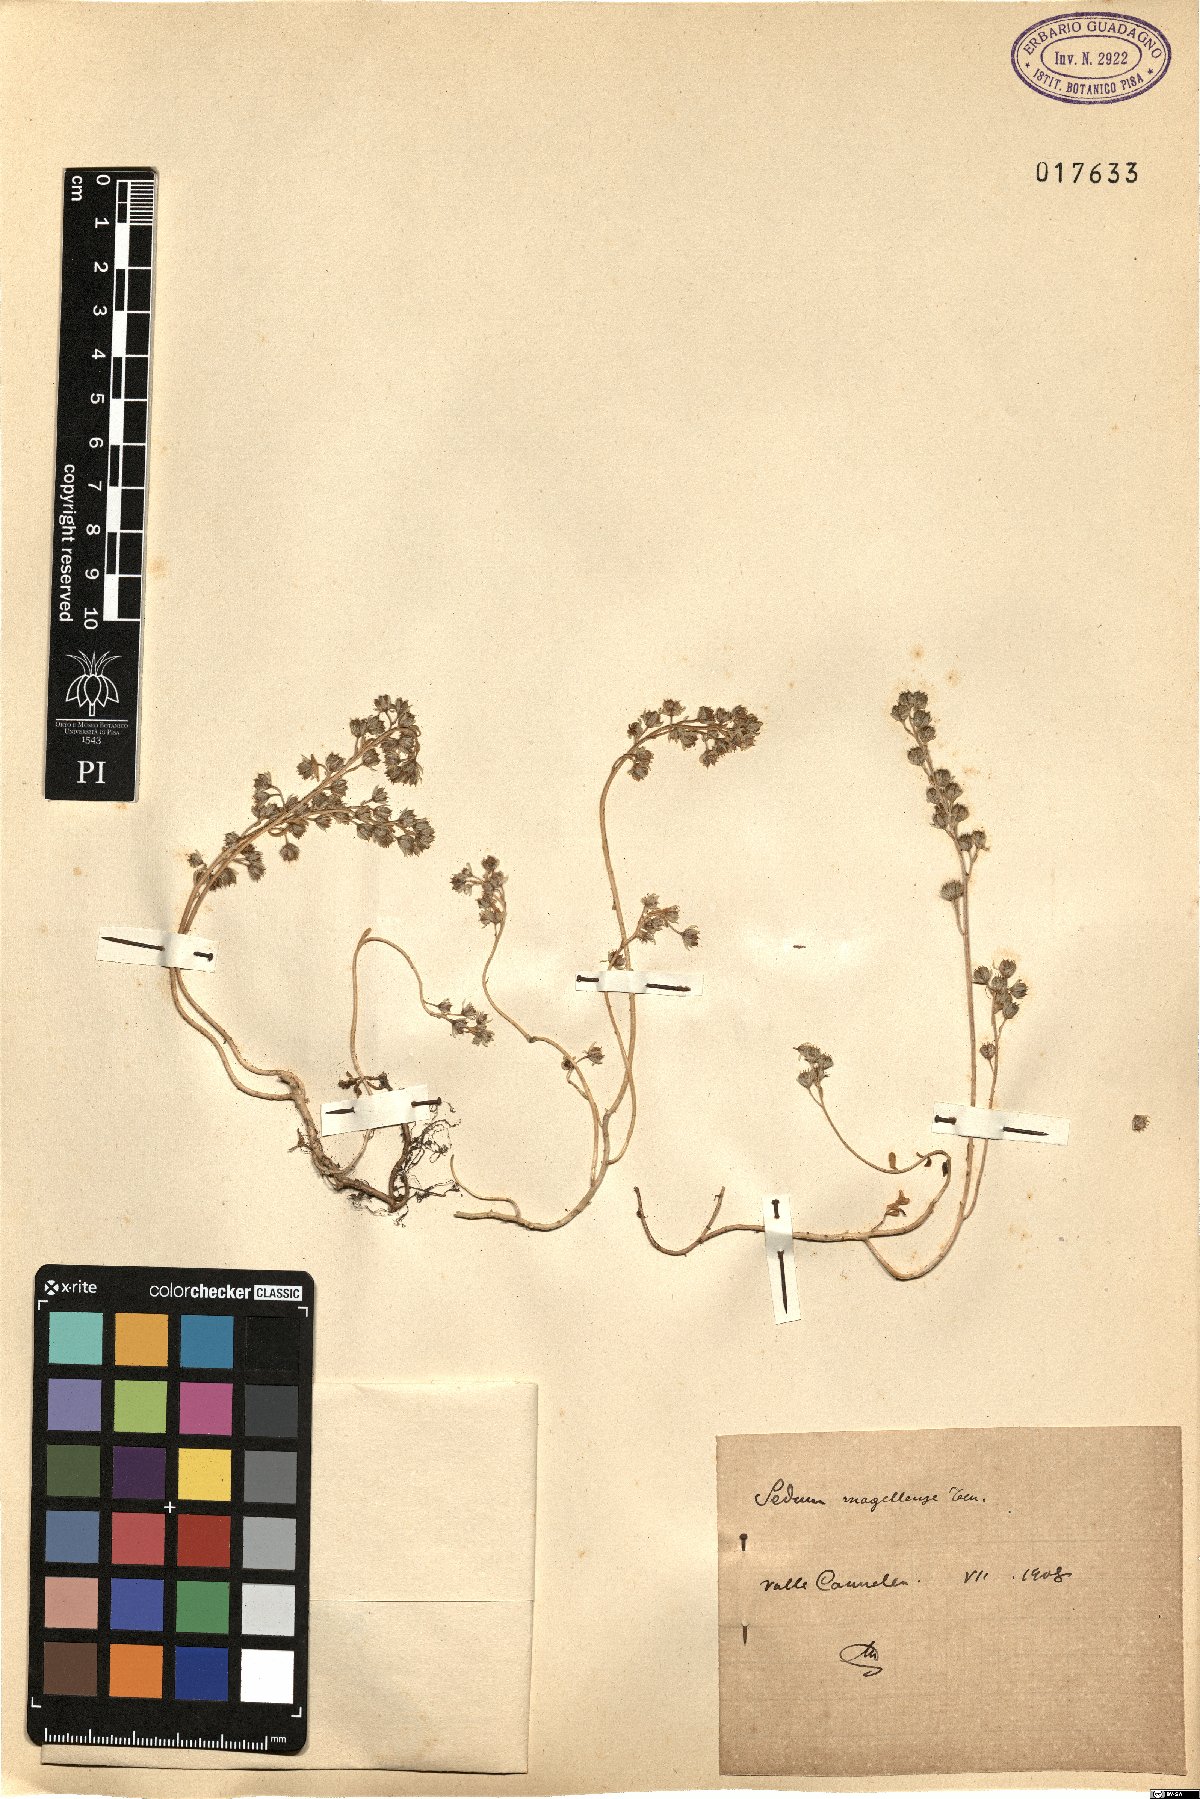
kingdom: Plantae
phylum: Tracheophyta
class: Magnoliopsida
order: Saxifragales
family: Crassulaceae
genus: Sedum
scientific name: Sedum magellense
